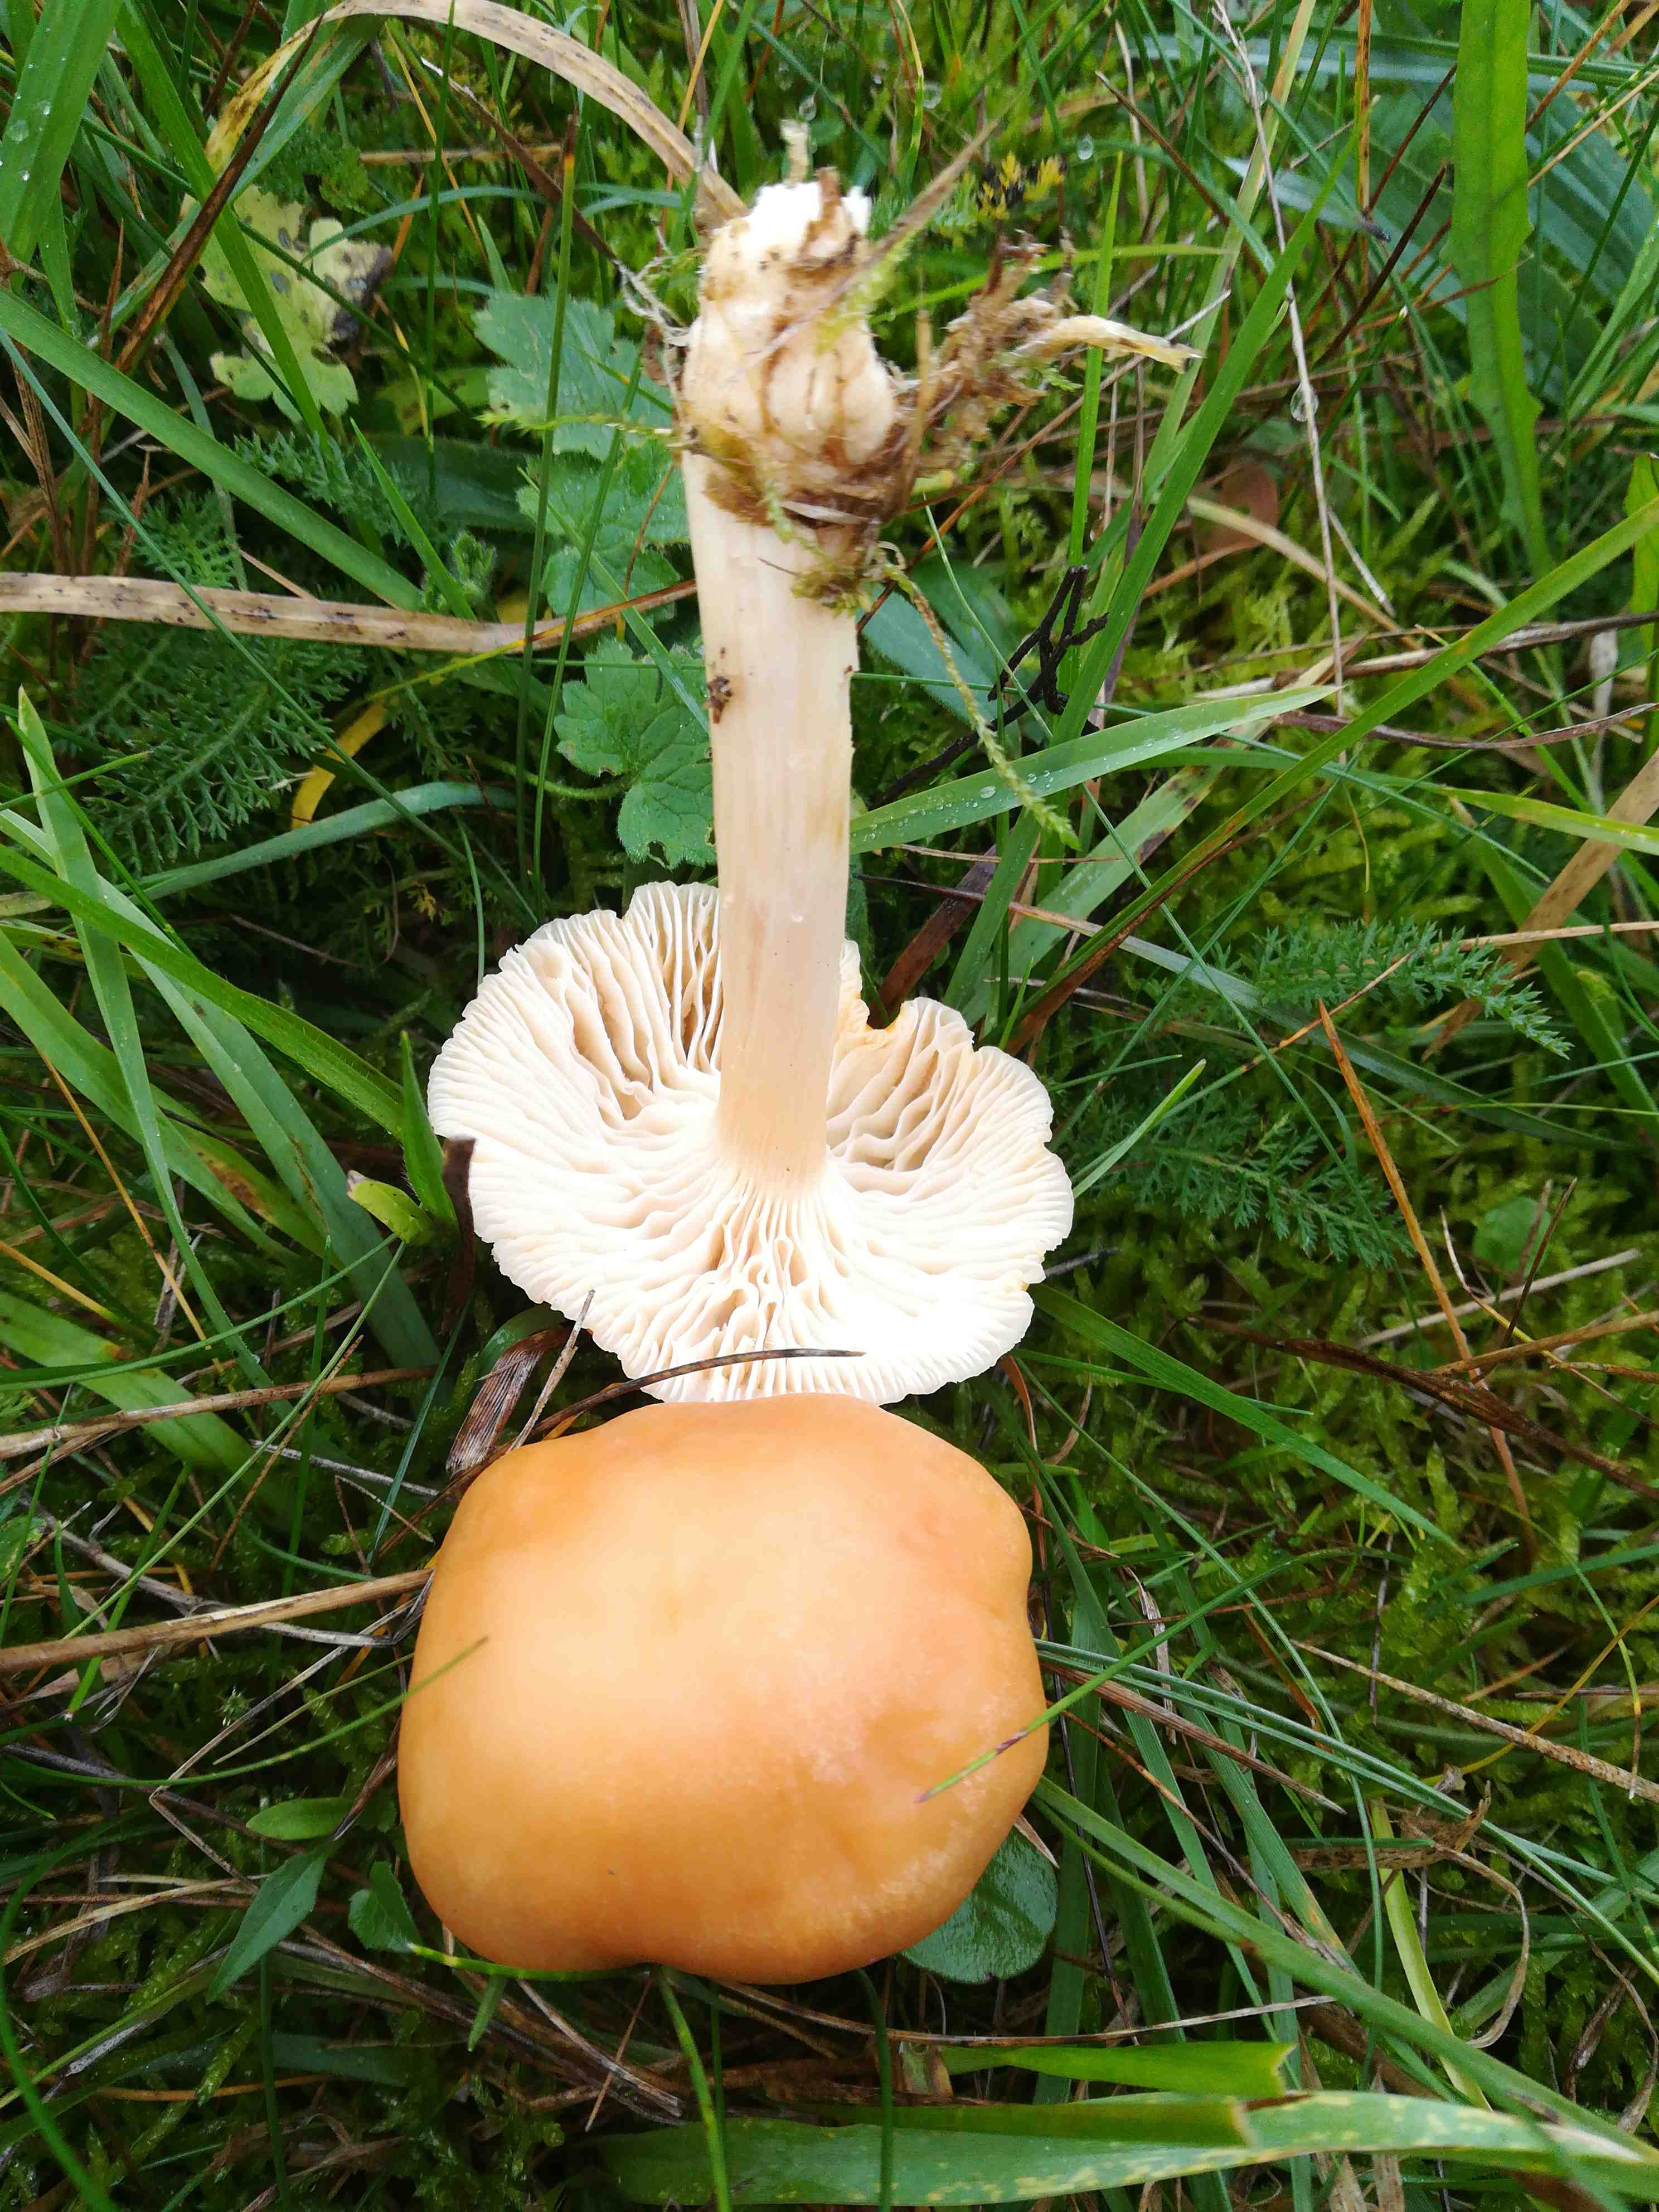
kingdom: Fungi
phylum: Basidiomycota
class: Agaricomycetes
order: Agaricales
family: Hygrophoraceae
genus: Cuphophyllus
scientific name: Cuphophyllus pratensis
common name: eng-vokshat
